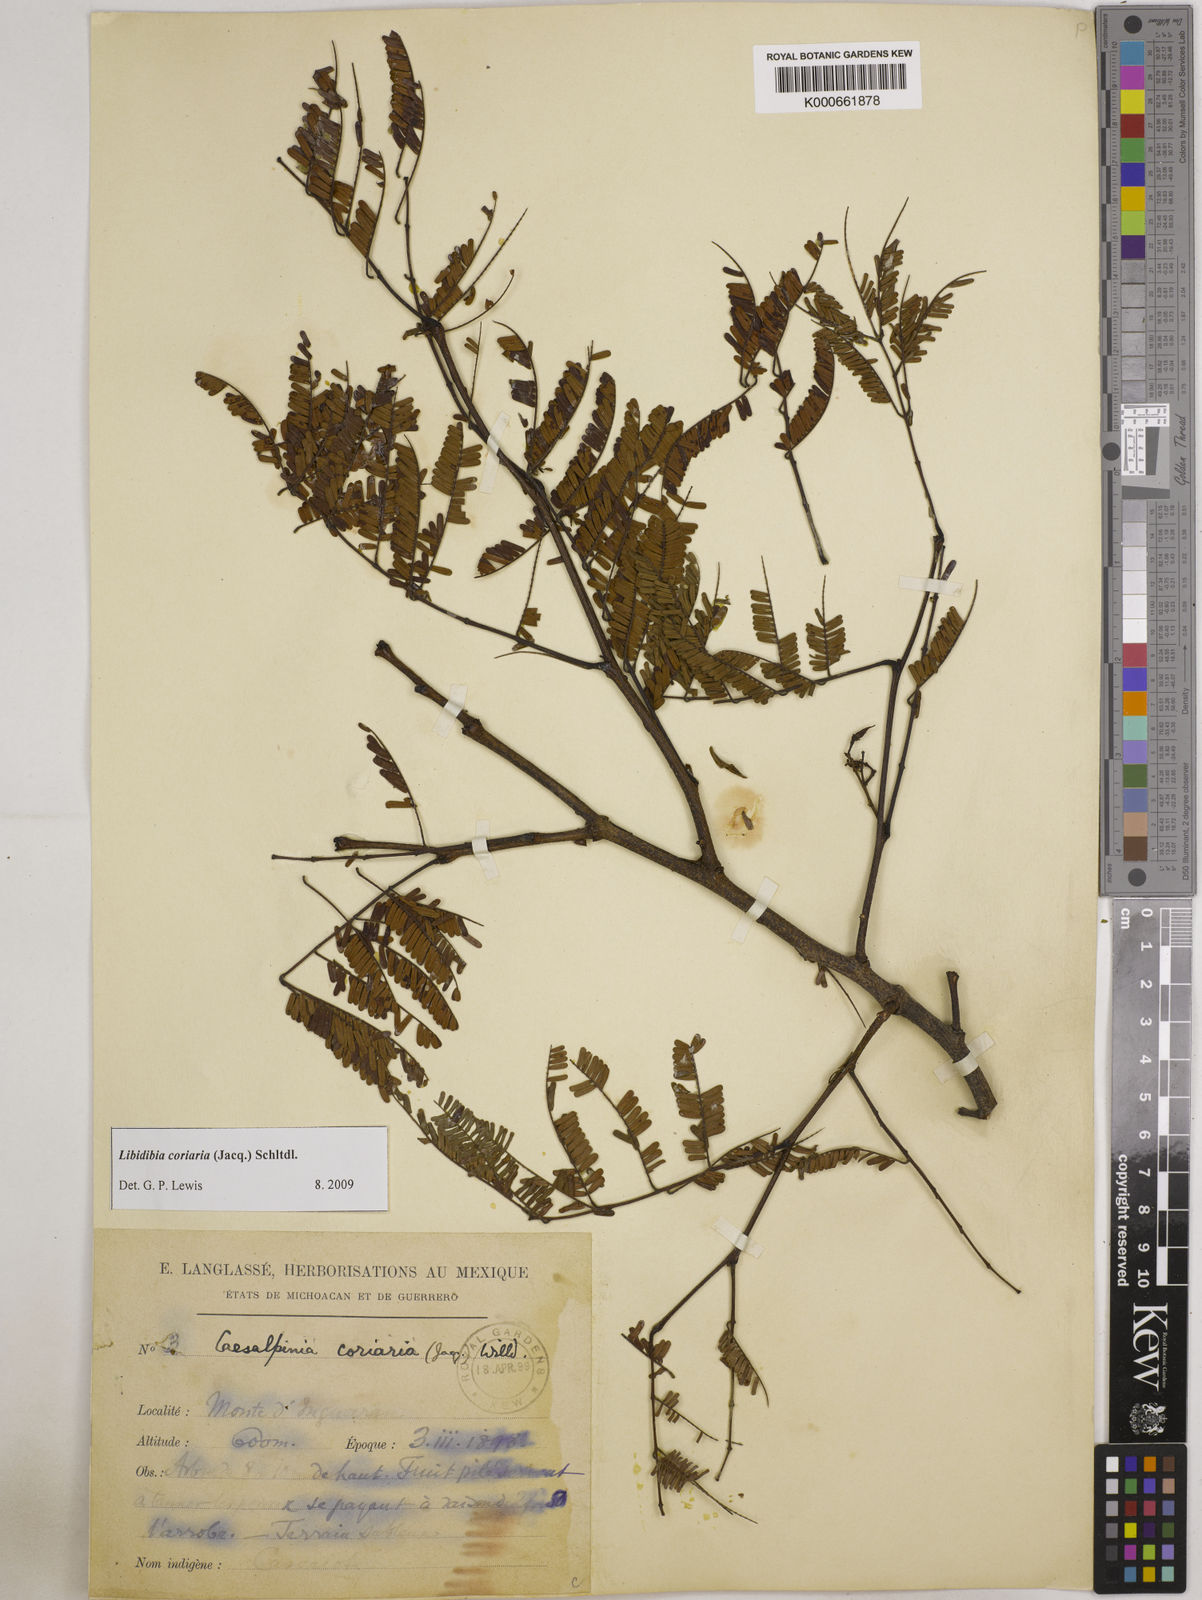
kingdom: Plantae
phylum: Tracheophyta
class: Magnoliopsida
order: Fabales
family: Fabaceae
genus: Libidibia
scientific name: Libidibia coriaria
